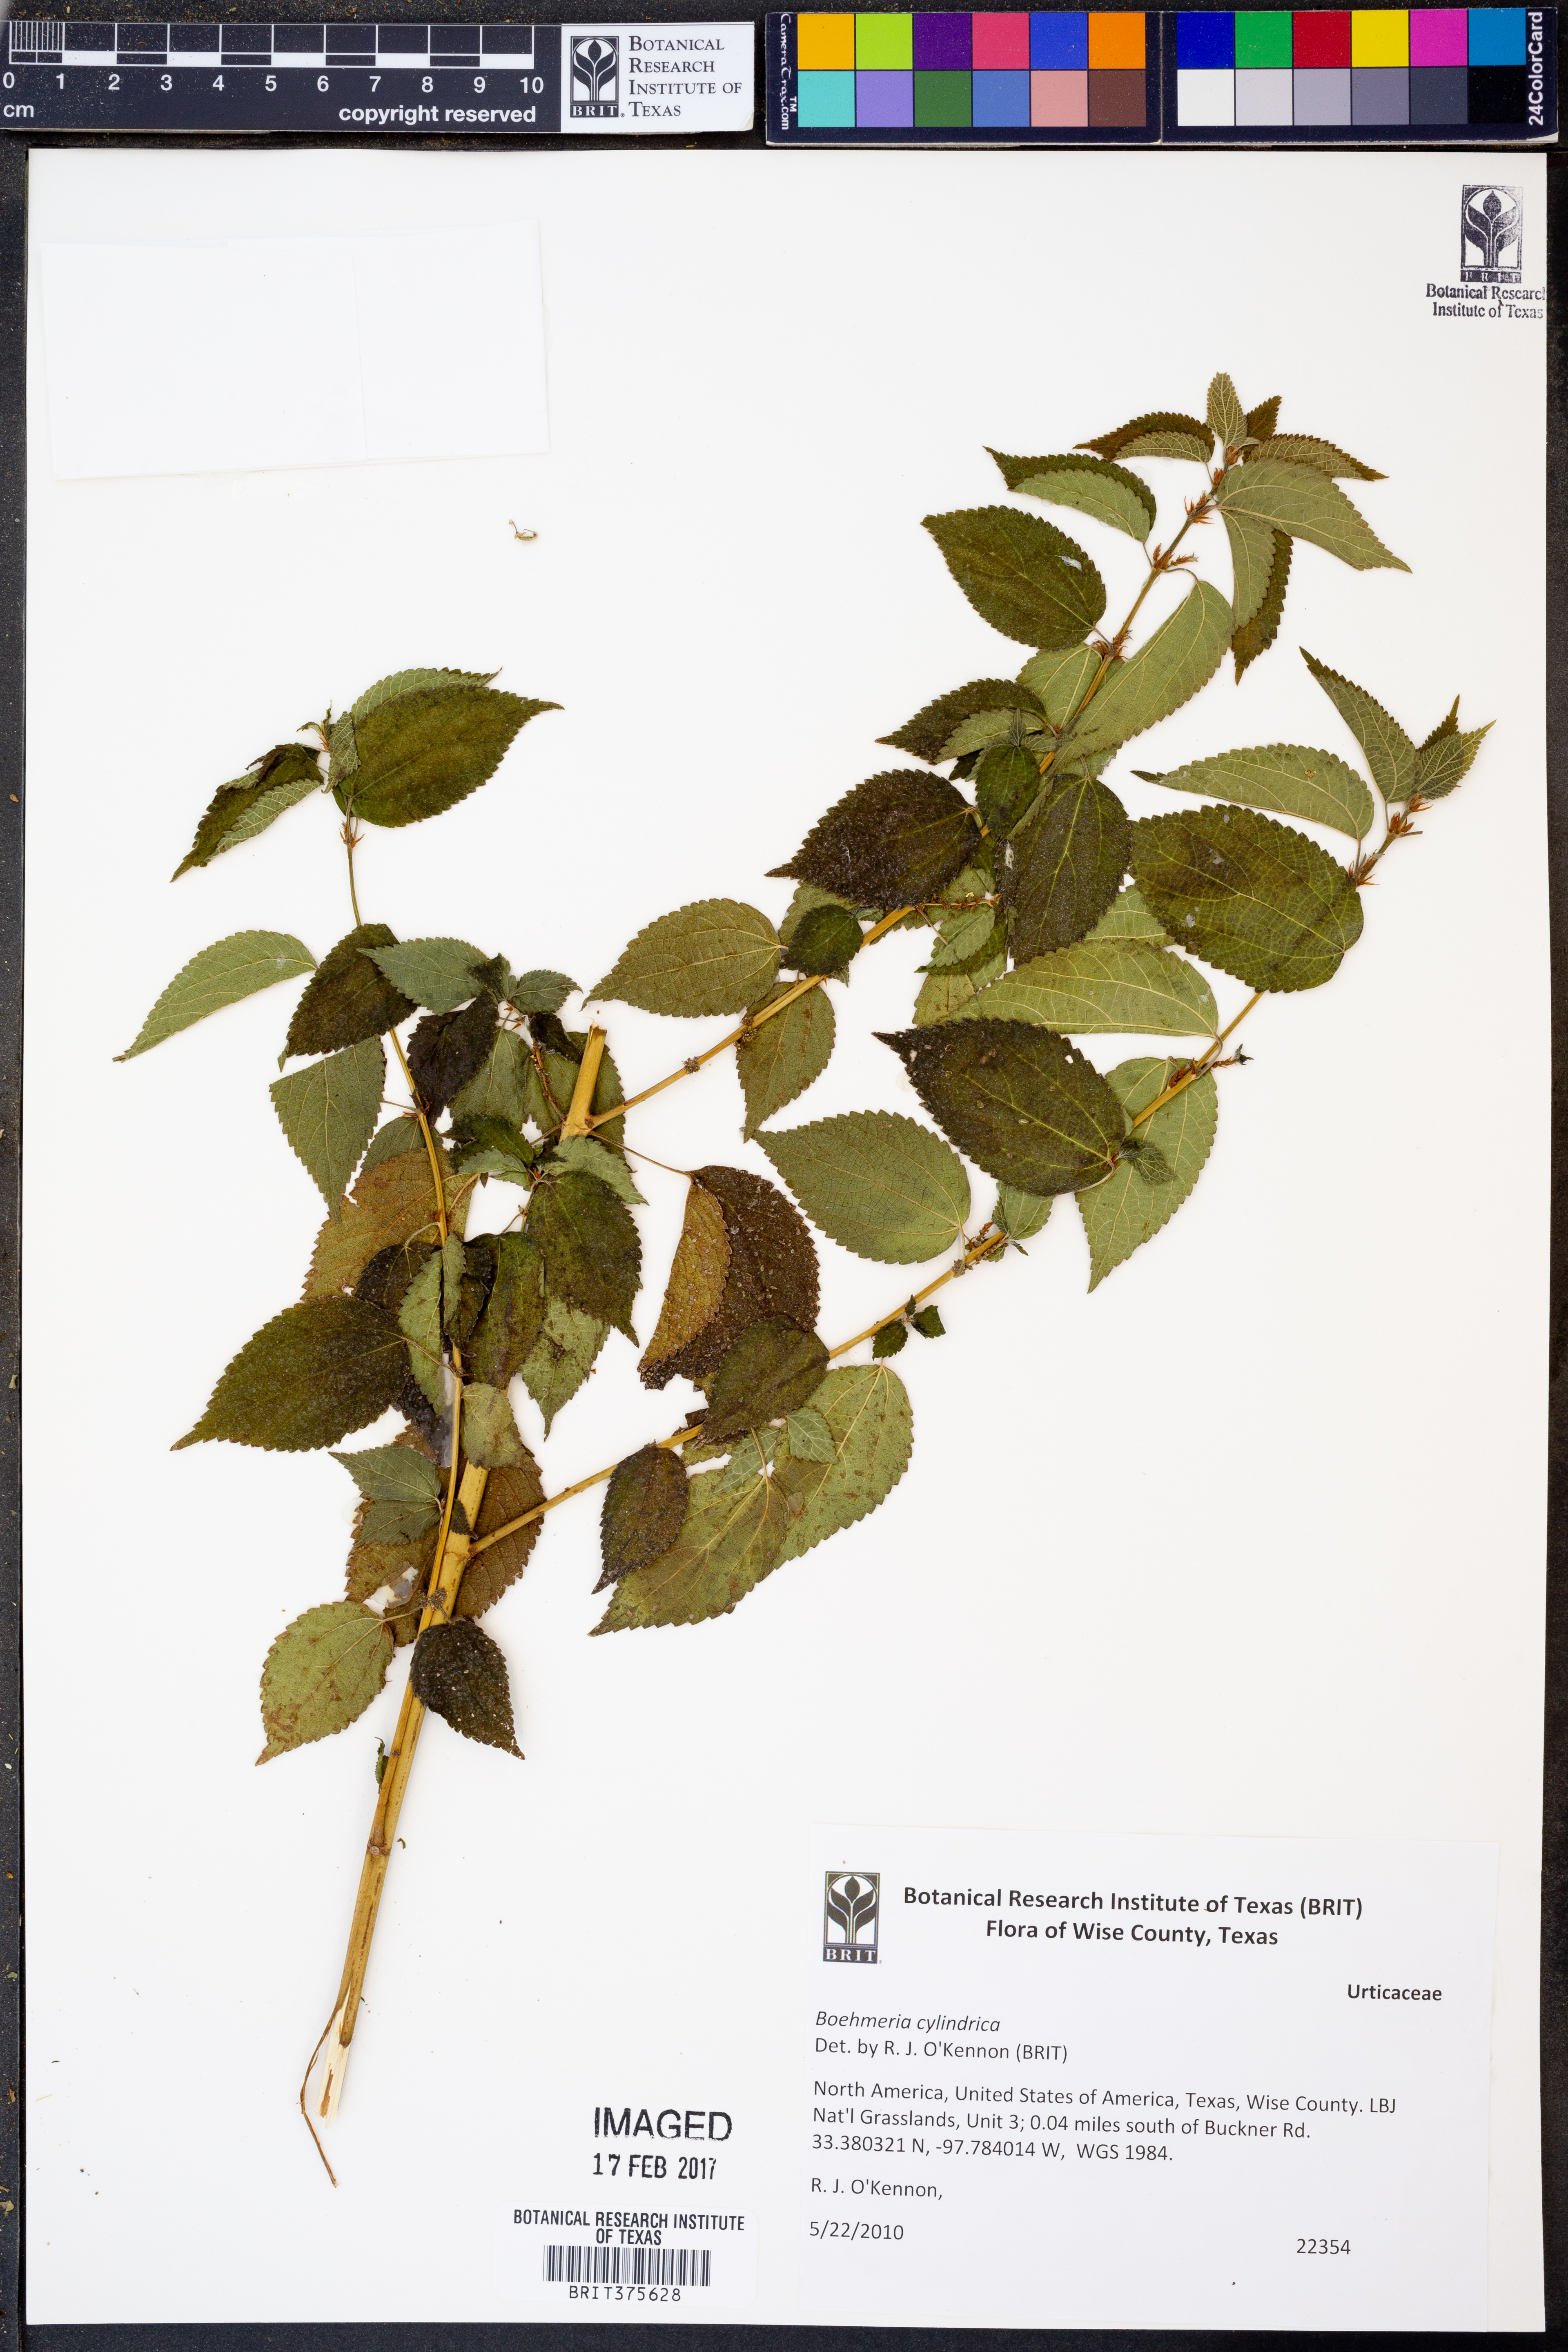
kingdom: Plantae
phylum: Tracheophyta
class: Magnoliopsida
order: Rosales
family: Urticaceae
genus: Boehmeria
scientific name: Boehmeria cylindrica
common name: Bog-hemp
